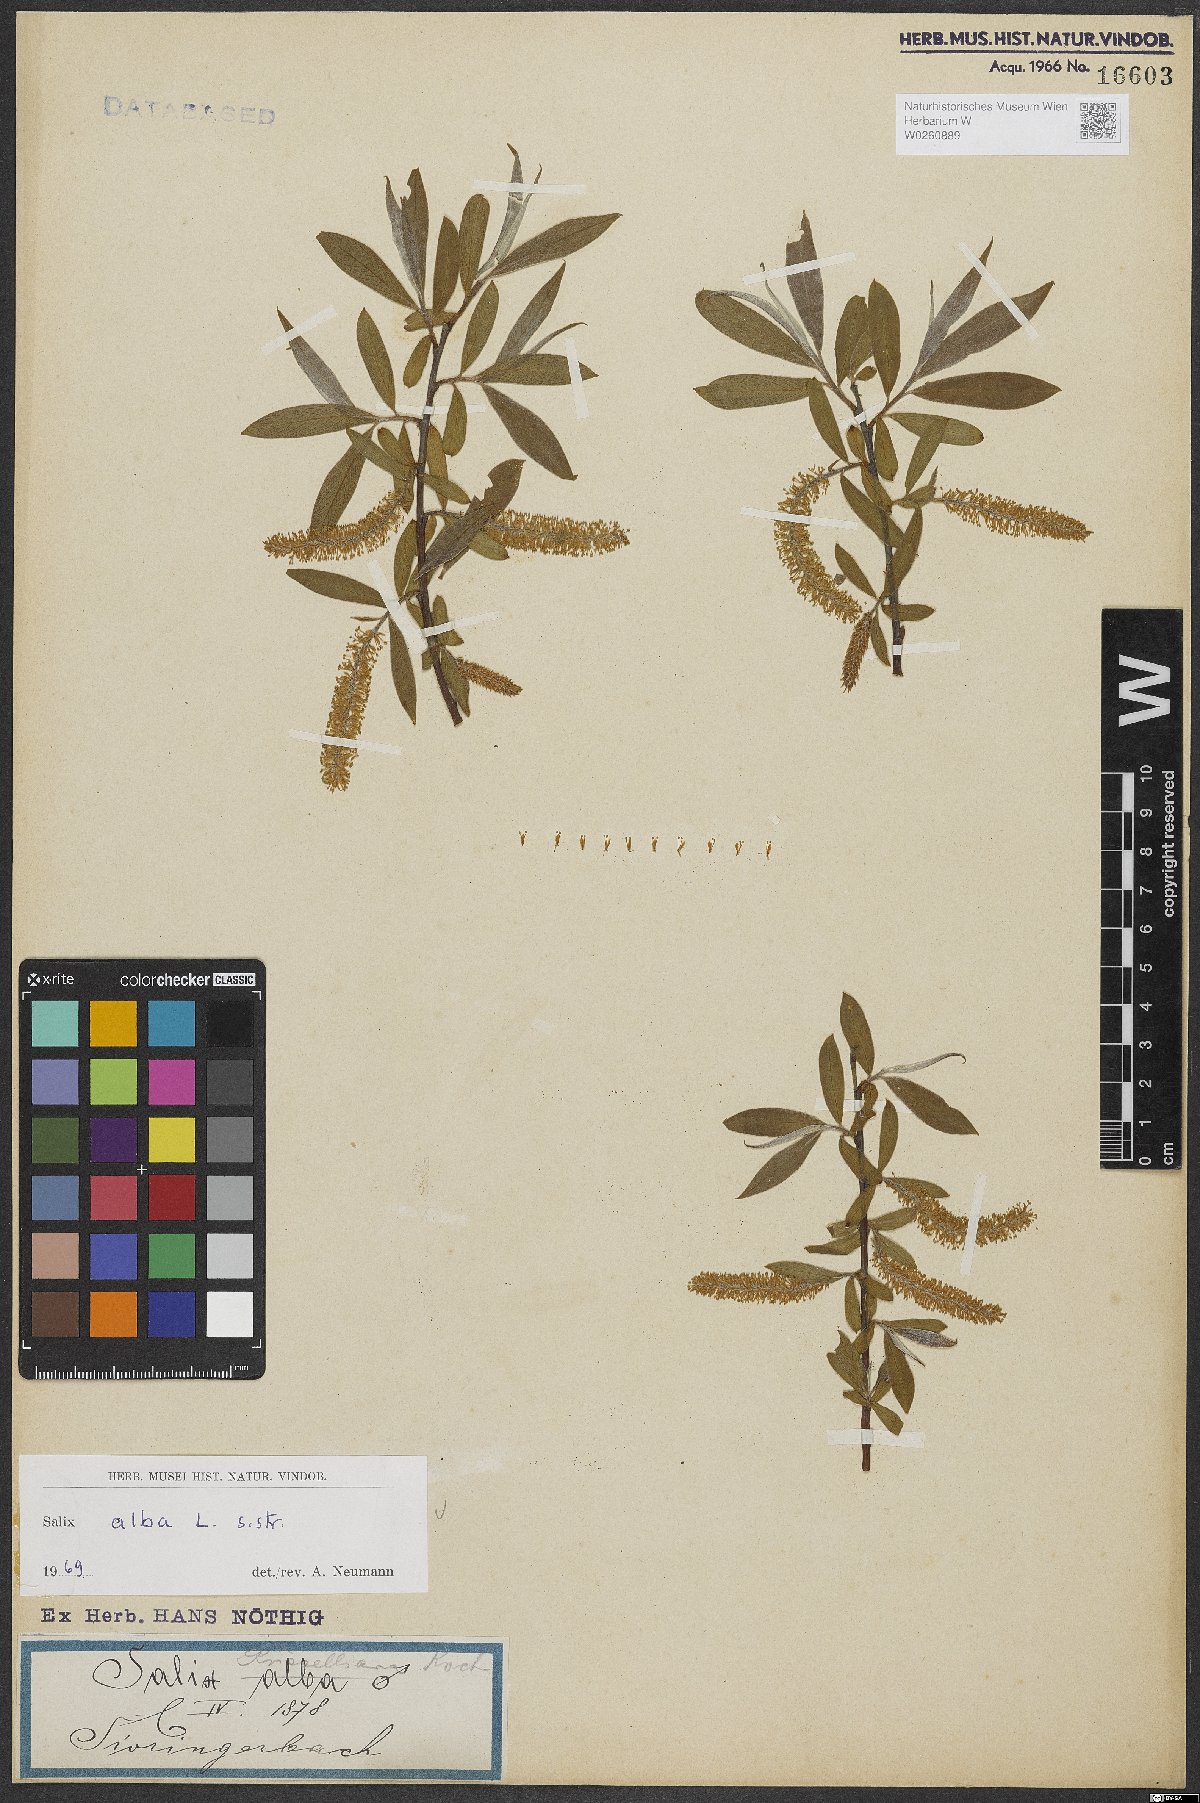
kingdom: Plantae
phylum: Tracheophyta
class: Magnoliopsida
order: Malpighiales
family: Salicaceae
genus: Salix
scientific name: Salix alba
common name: White willow
